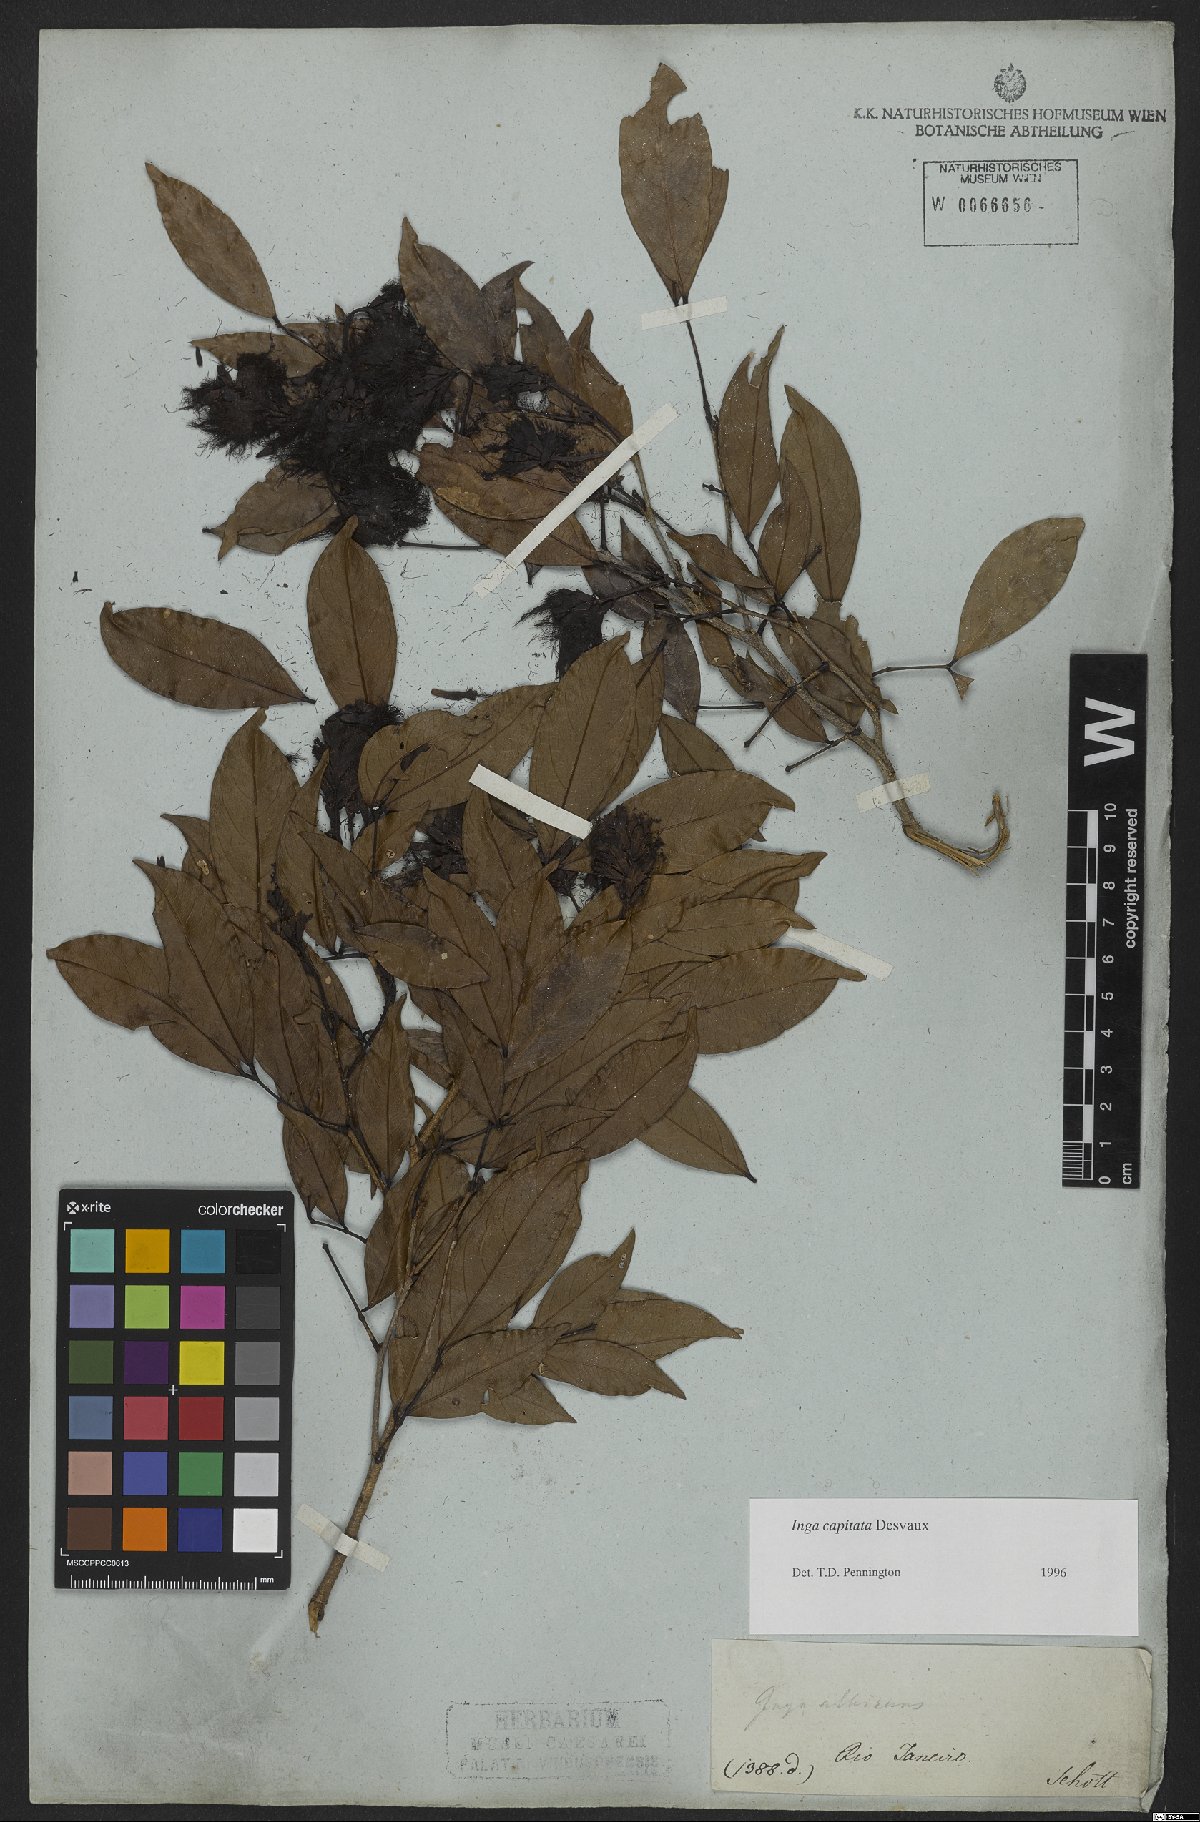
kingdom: Plantae
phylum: Tracheophyta
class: Magnoliopsida
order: Fabales
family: Fabaceae
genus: Inga
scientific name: Inga capitata
